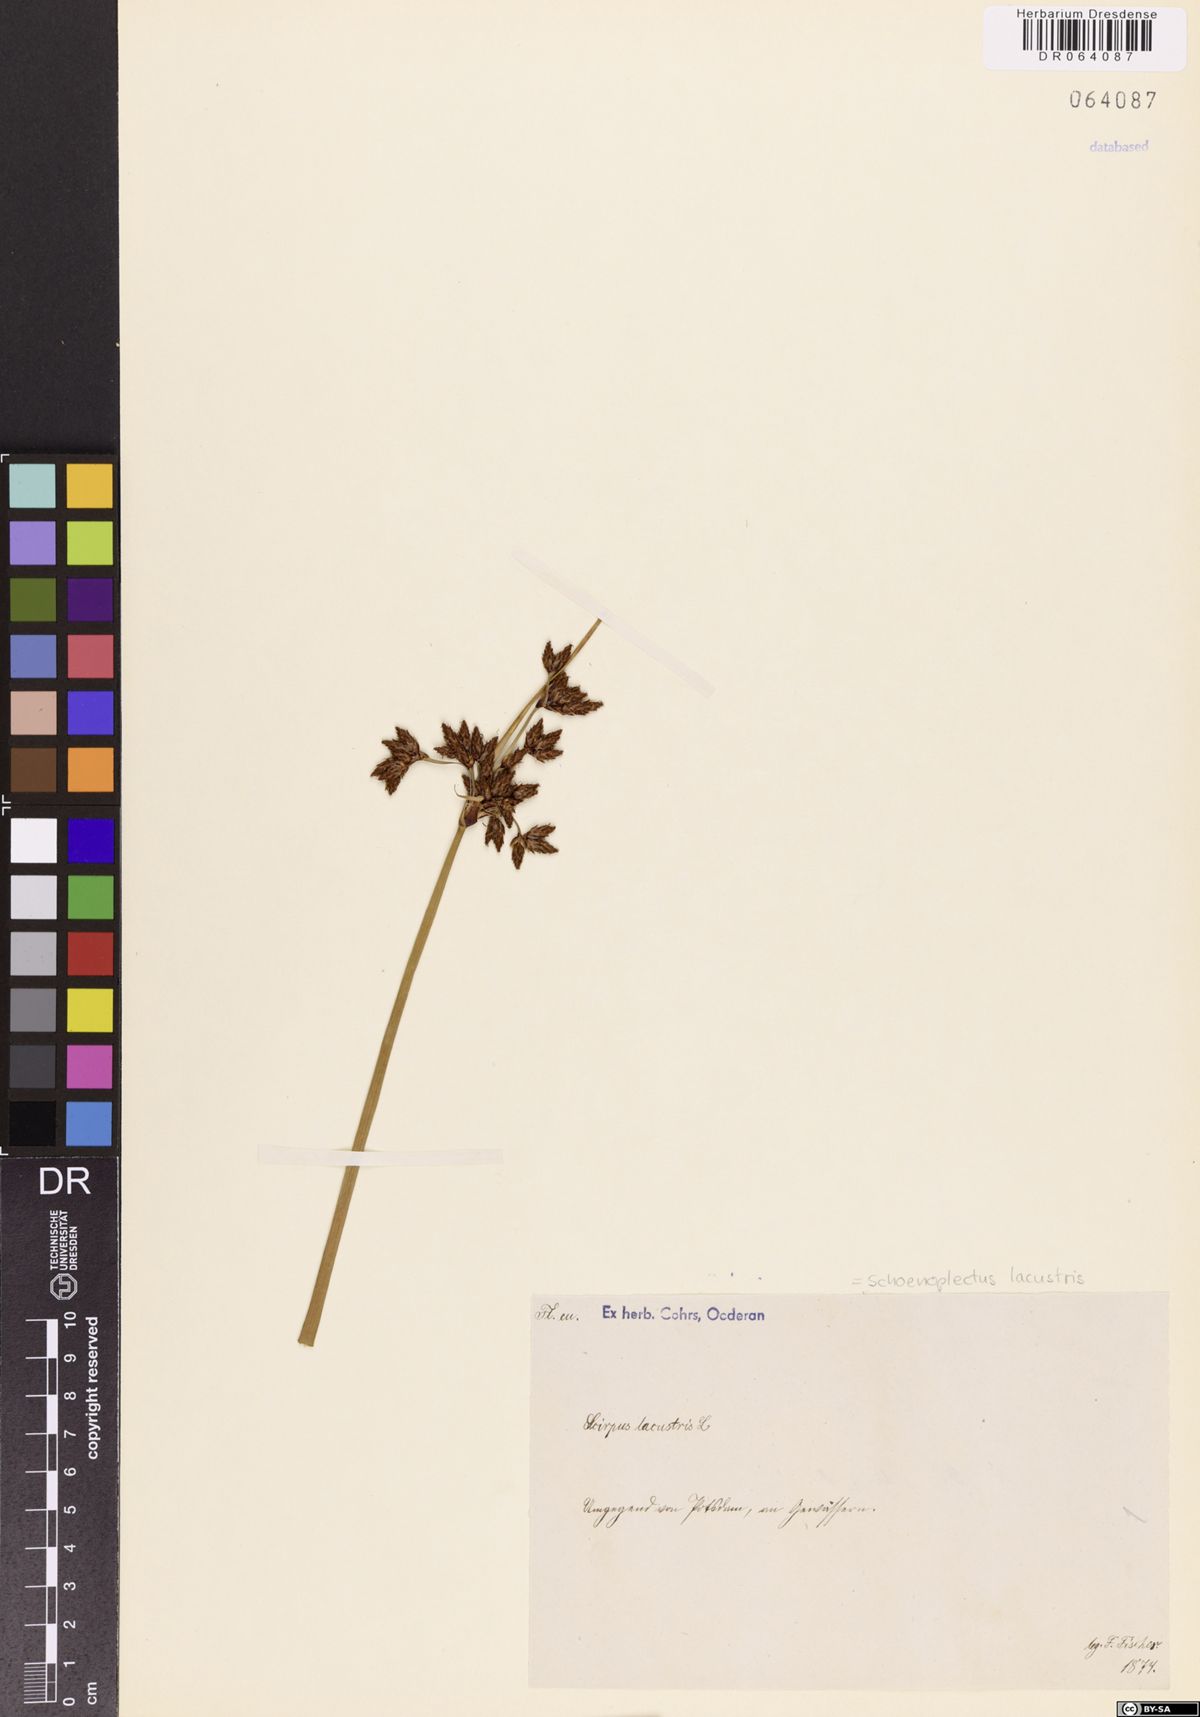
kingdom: Plantae
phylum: Tracheophyta
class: Liliopsida
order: Poales
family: Cyperaceae
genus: Schoenoplectus
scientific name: Schoenoplectus lacustris
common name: Common club-rush
